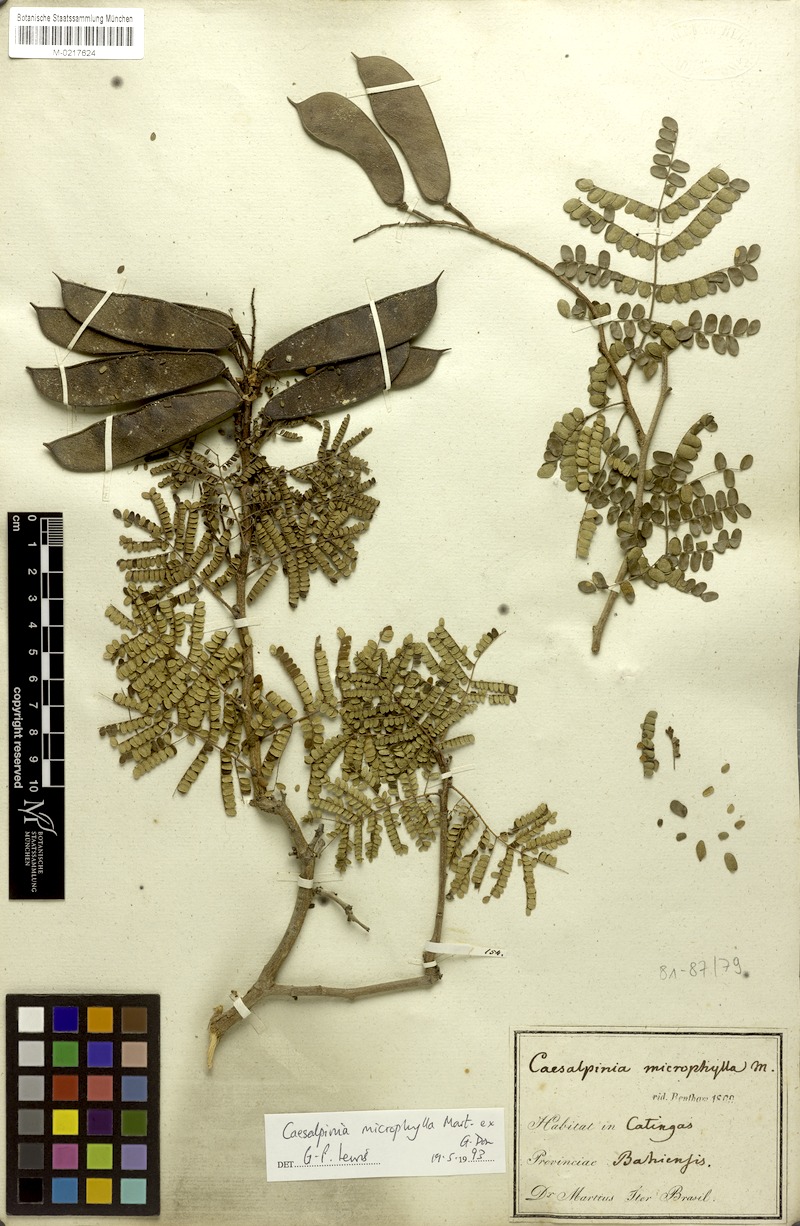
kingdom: Plantae
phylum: Tracheophyta
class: Magnoliopsida
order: Fabales
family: Fabaceae
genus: Cenostigma
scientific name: Cenostigma microphyllum
